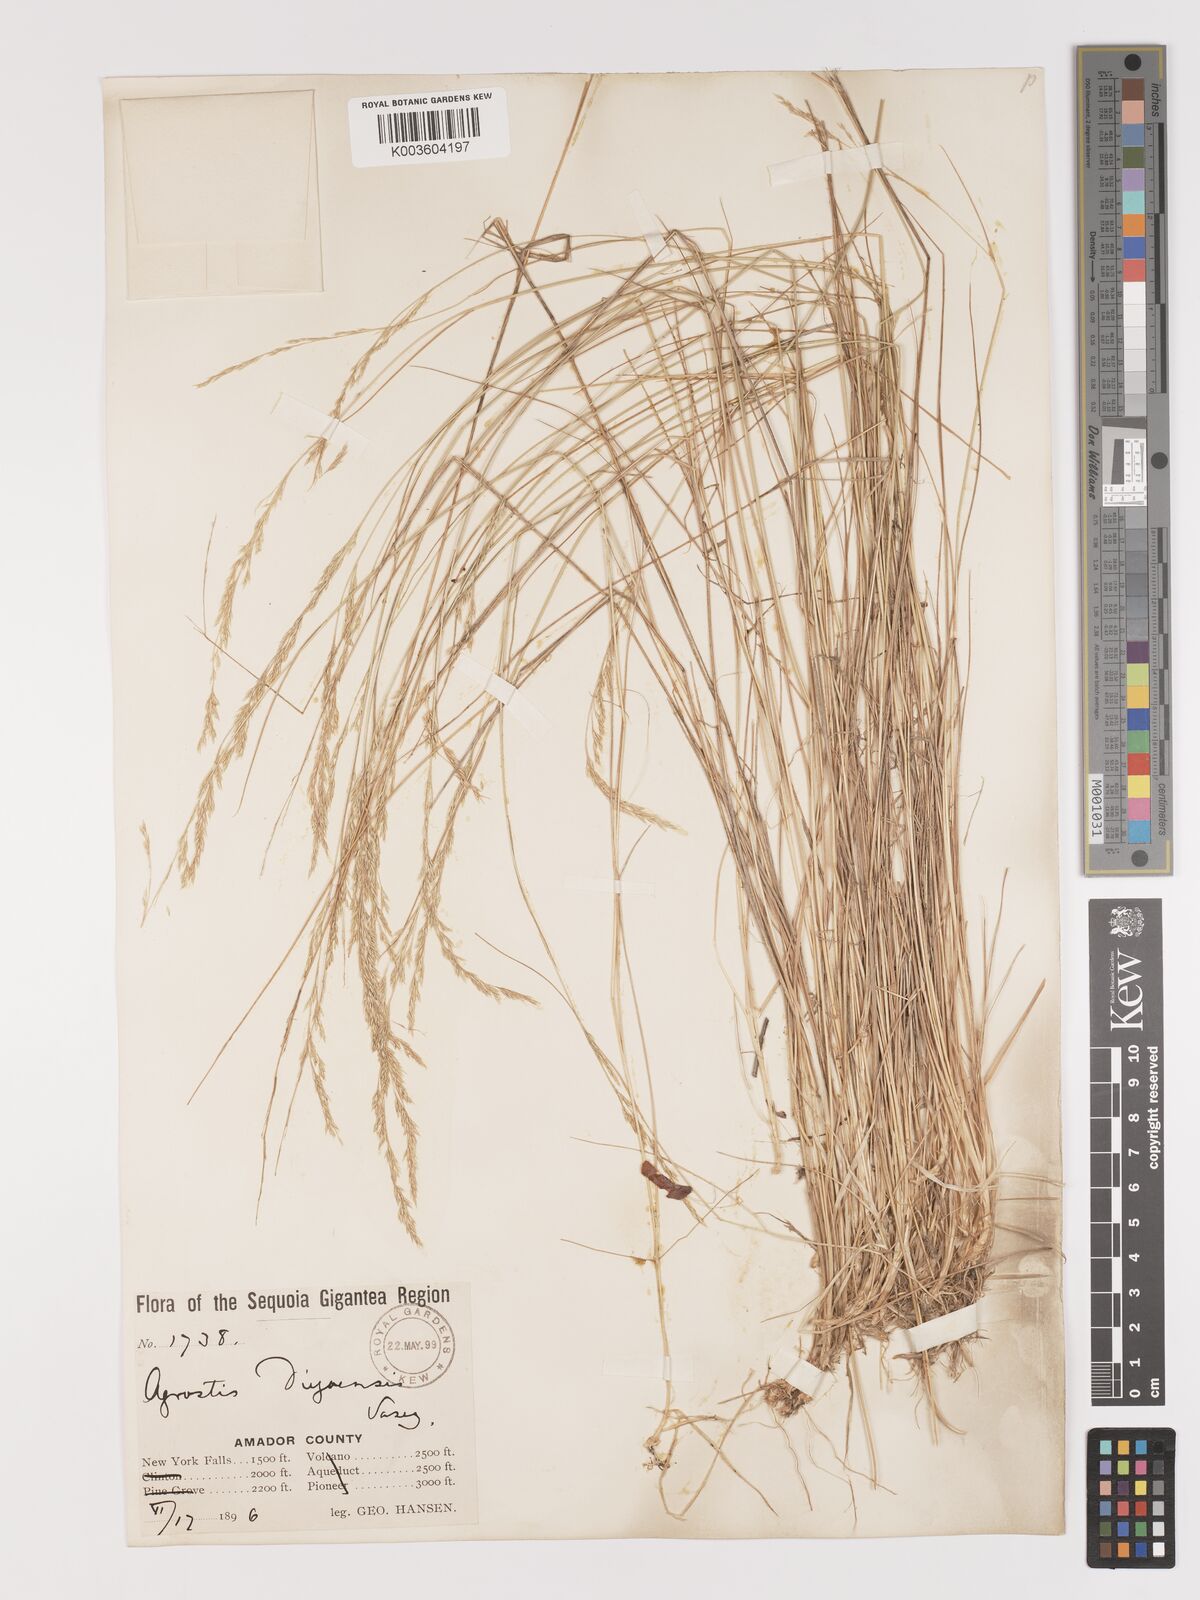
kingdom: Plantae
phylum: Tracheophyta
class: Liliopsida
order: Poales
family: Poaceae
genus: Agrostis
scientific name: Agrostis pallens
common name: Dune bent
